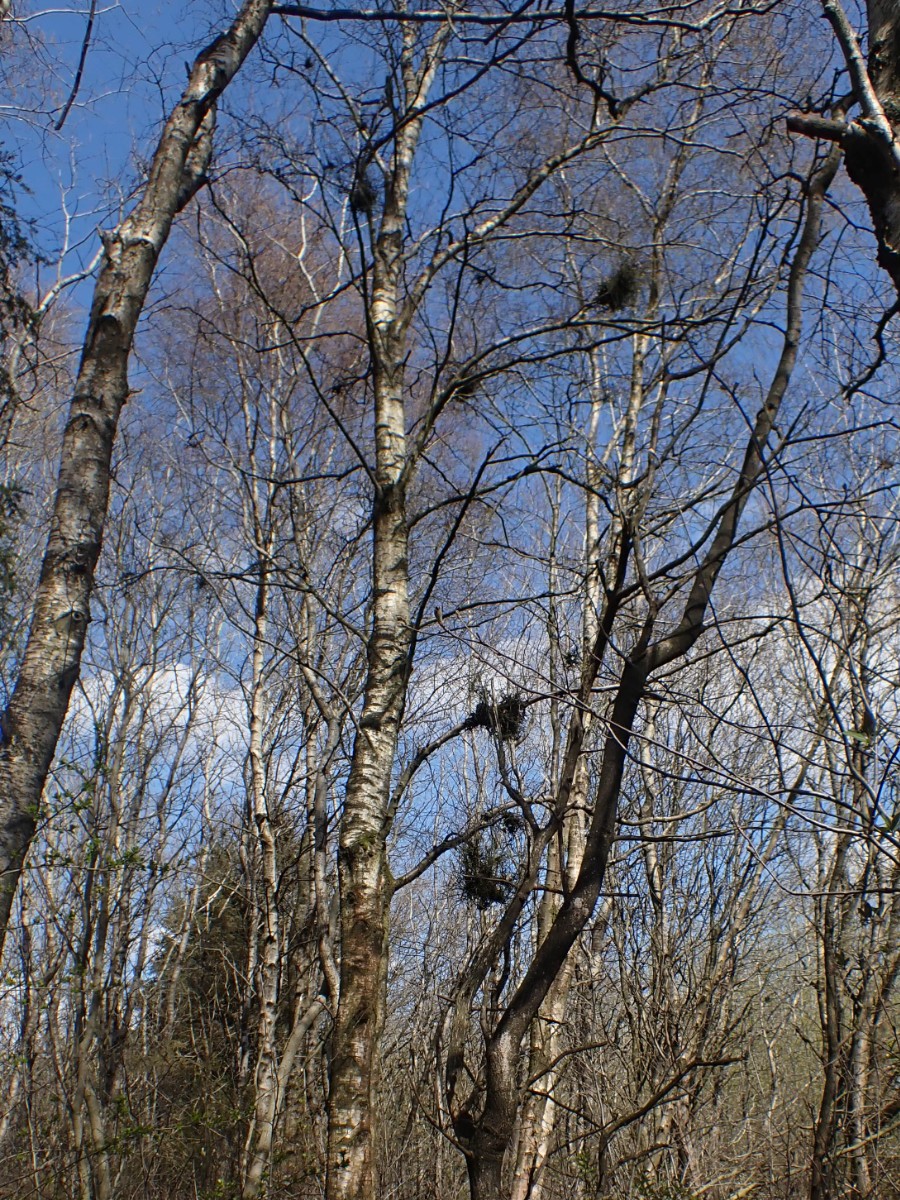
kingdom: Fungi
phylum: Ascomycota
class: Taphrinomycetes
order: Taphrinales
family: Taphrinaceae
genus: Taphrina
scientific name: Taphrina betulina
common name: hekse-sækdug
